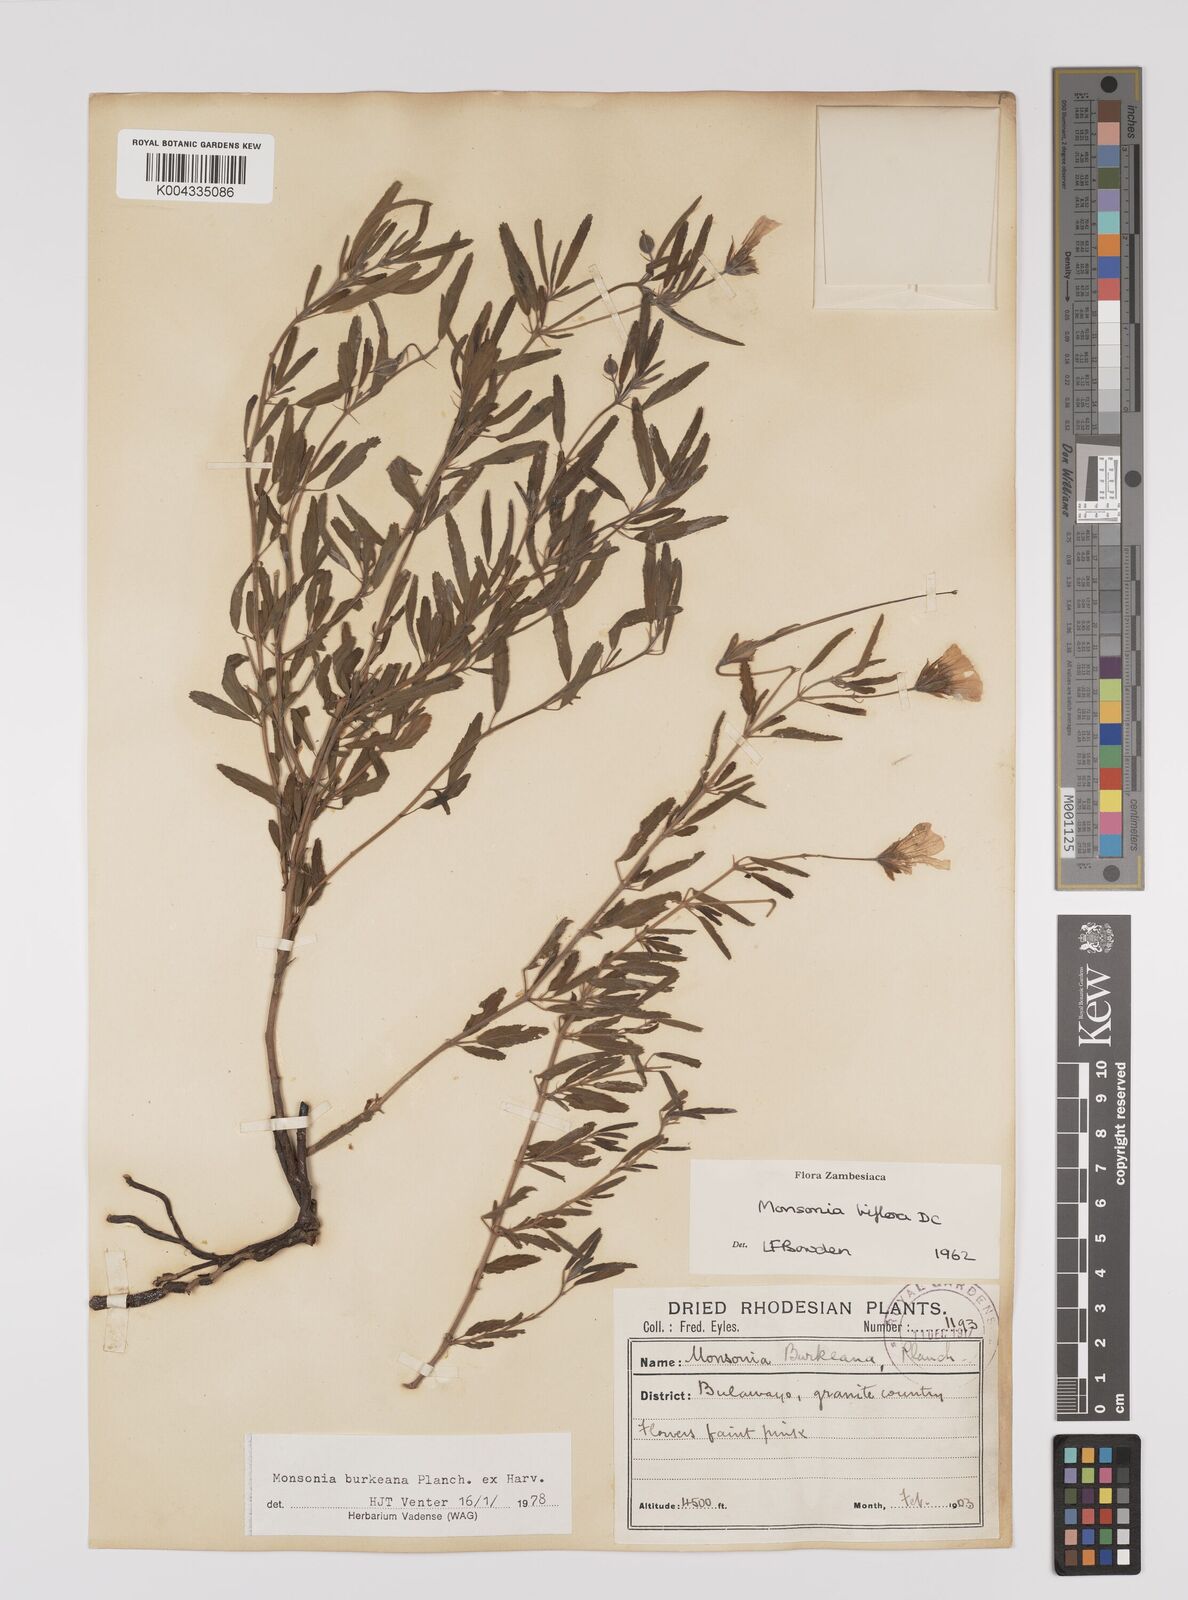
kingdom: Plantae
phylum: Tracheophyta
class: Magnoliopsida
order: Geraniales
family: Geraniaceae
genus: Monsonia
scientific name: Monsonia biflora
